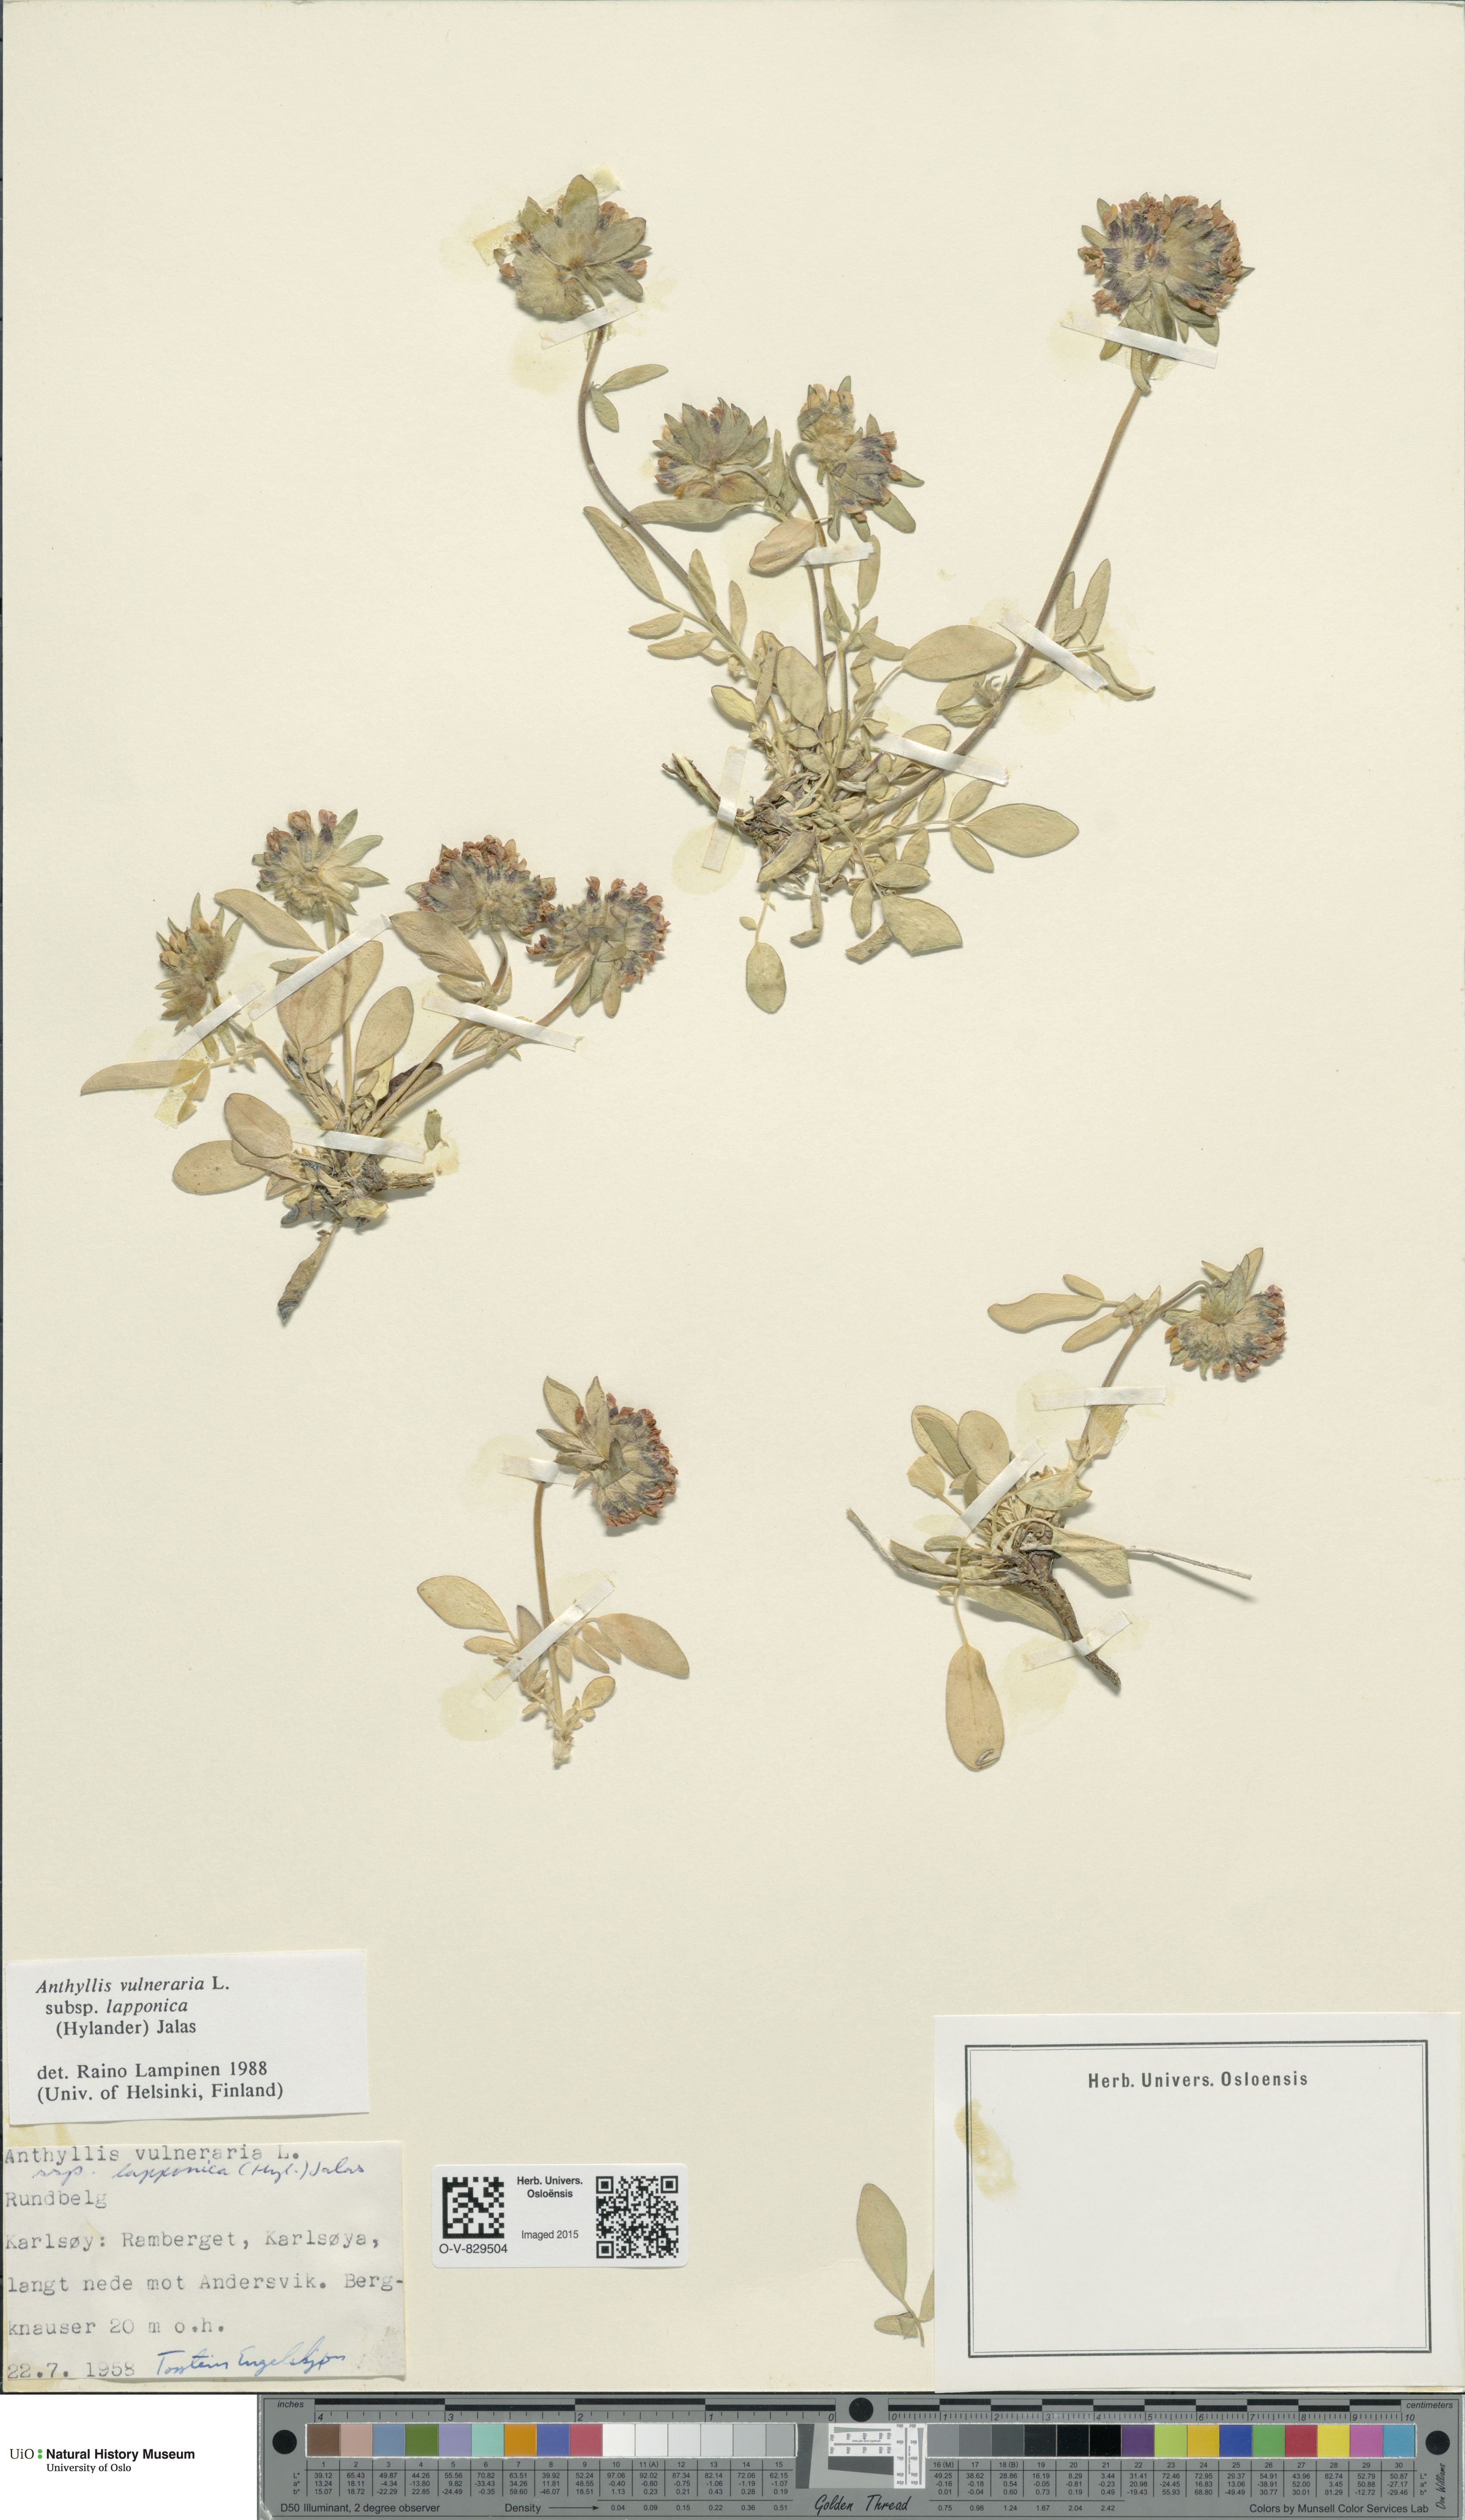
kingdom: Plantae
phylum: Tracheophyta
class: Magnoliopsida
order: Fabales
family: Fabaceae
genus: Anthyllis
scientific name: Anthyllis vulneraria
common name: Kidney vetch
